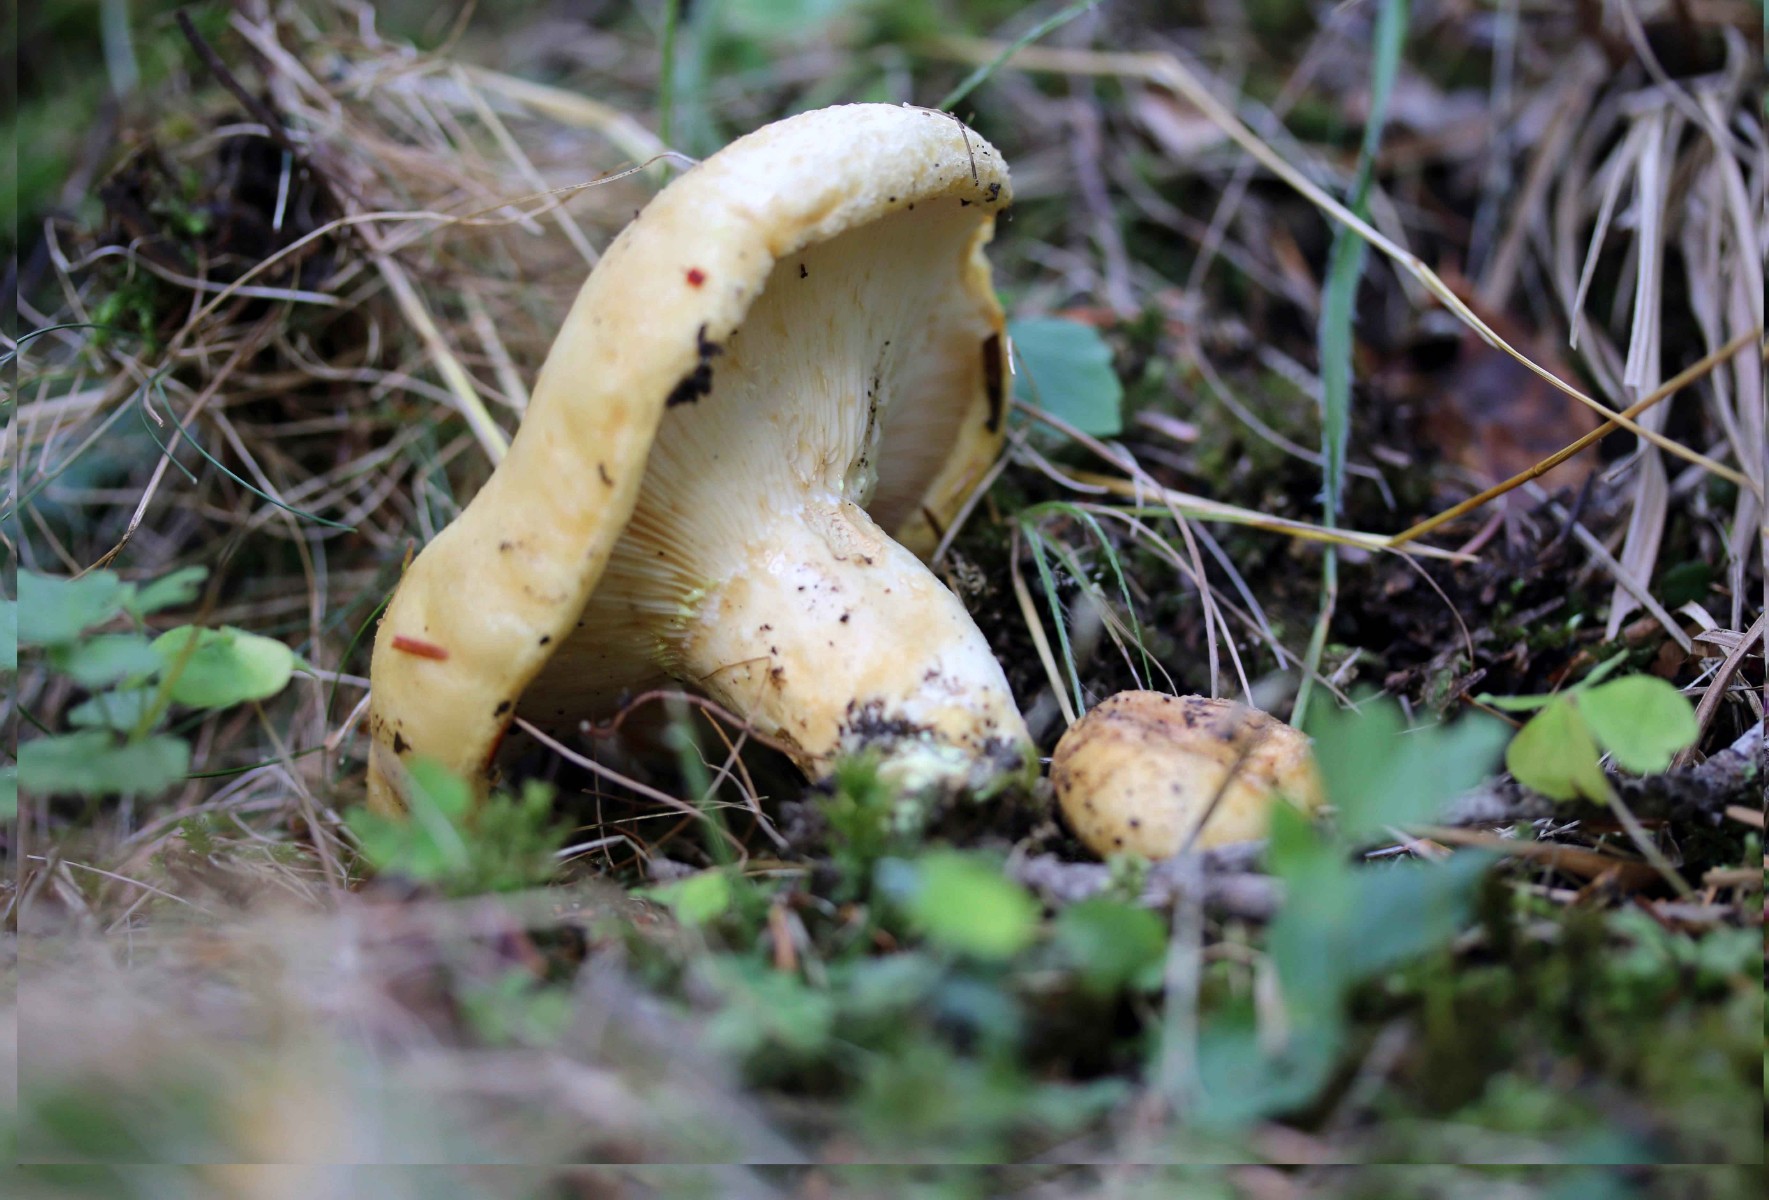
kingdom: Fungi
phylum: Basidiomycota
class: Agaricomycetes
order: Russulales
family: Russulaceae
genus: Lactarius
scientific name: Lactarius torminosus
